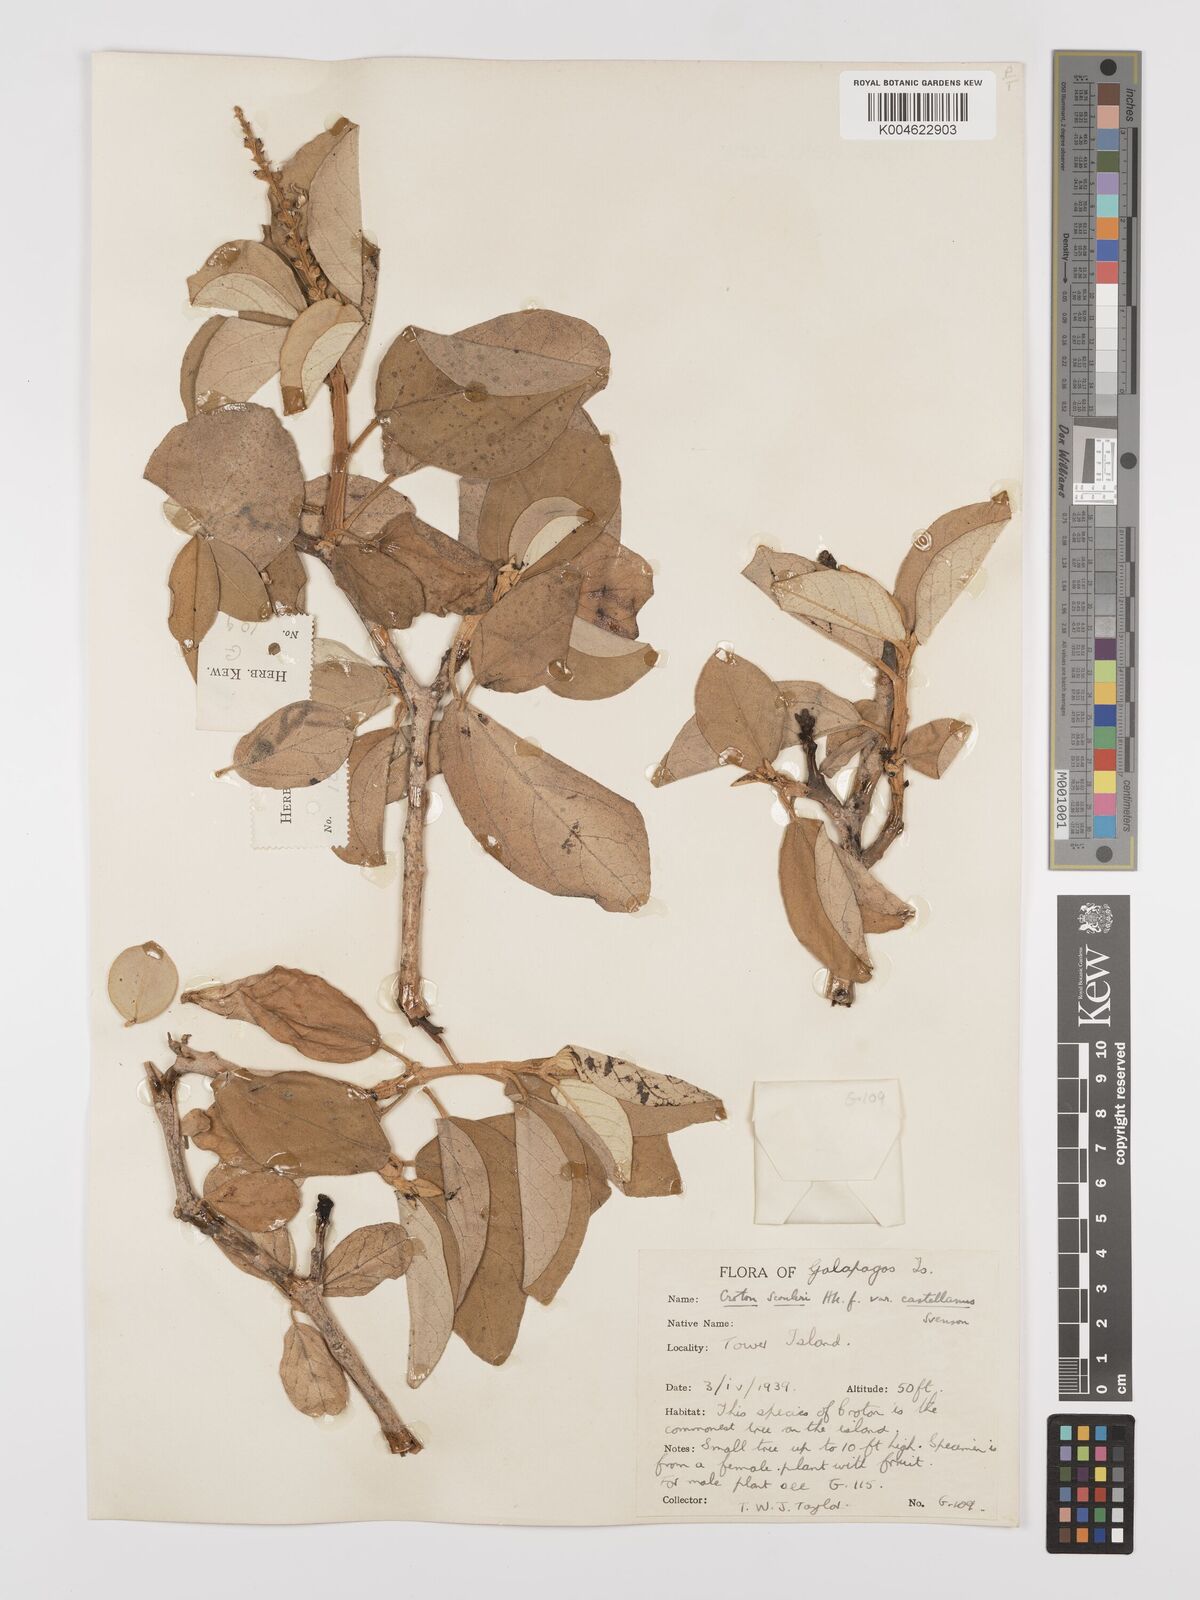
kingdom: Plantae
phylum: Tracheophyta
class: Magnoliopsida
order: Malpighiales
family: Euphorbiaceae
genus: Croton
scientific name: Croton scouleri
